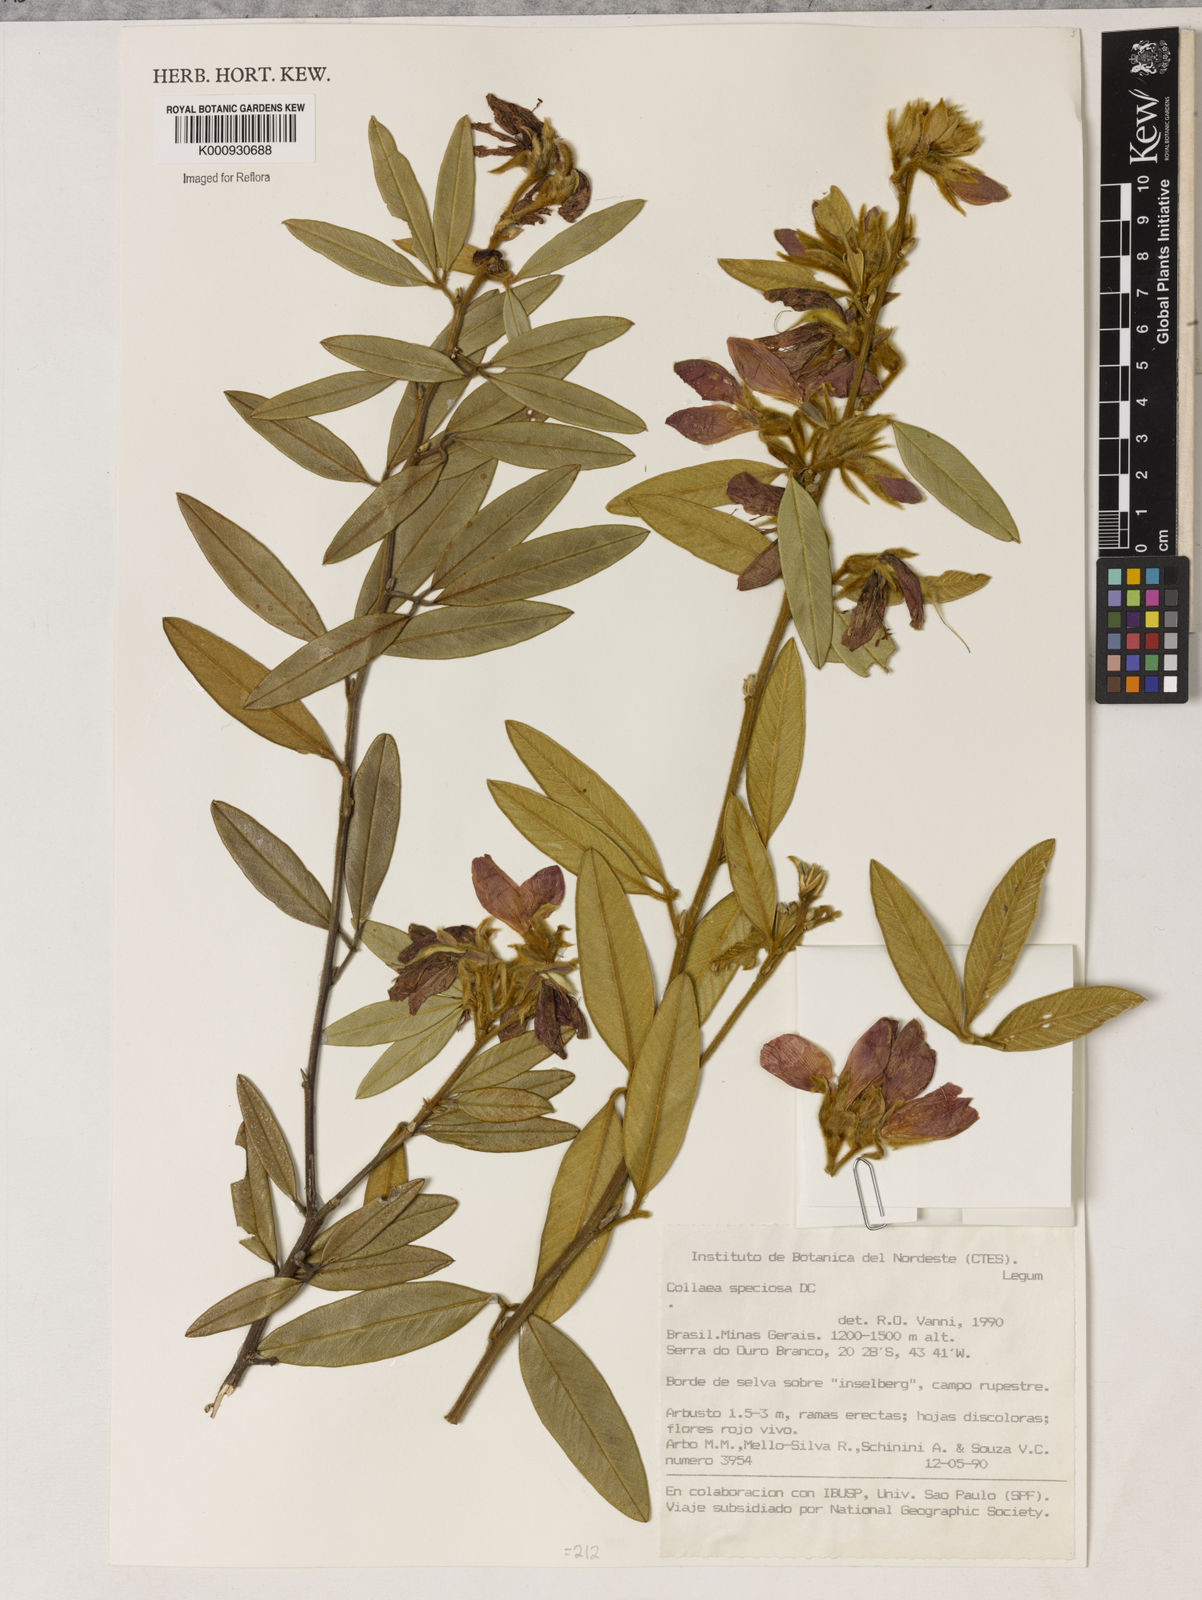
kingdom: Plantae
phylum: Tracheophyta
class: Magnoliopsida
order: Lamiales
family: Lamiaceae
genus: Coleus
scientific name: Coleus barbatus
